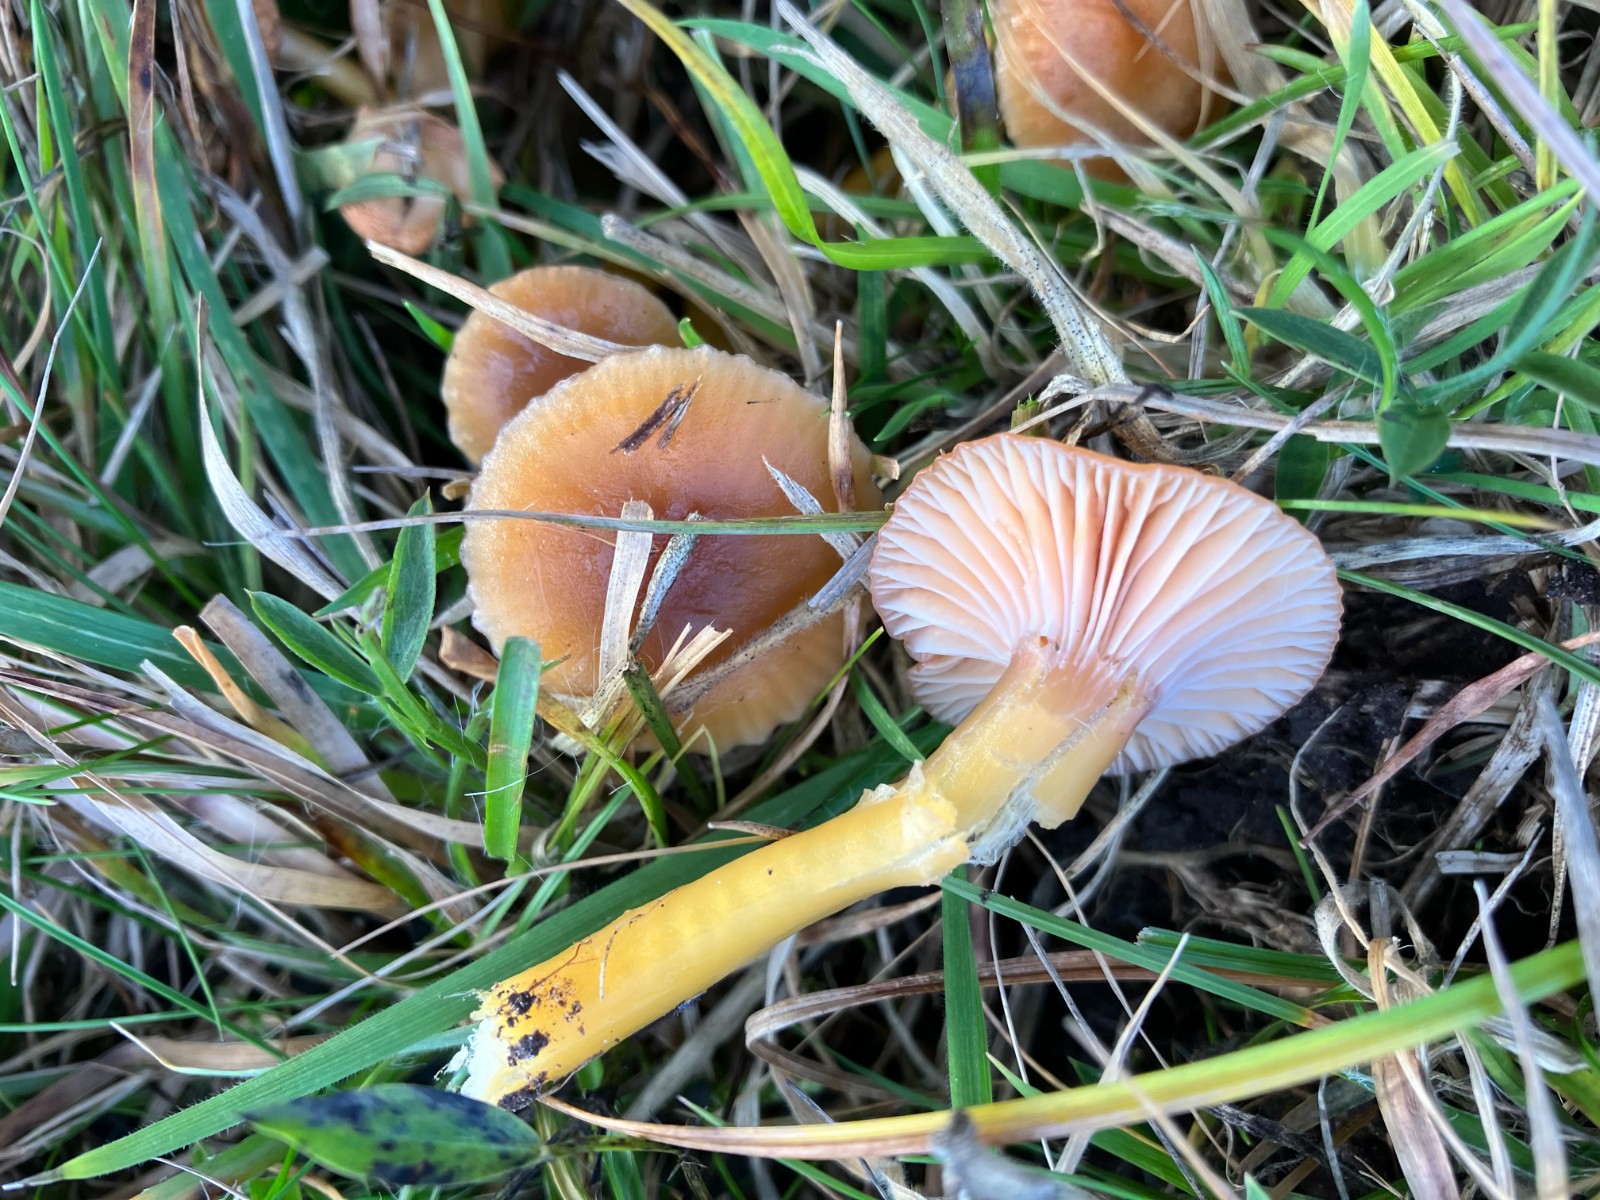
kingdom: Fungi
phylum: Basidiomycota
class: Agaricomycetes
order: Agaricales
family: Hygrophoraceae
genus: Gliophorus
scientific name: Gliophorus laetus
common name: brusk-vokshat
